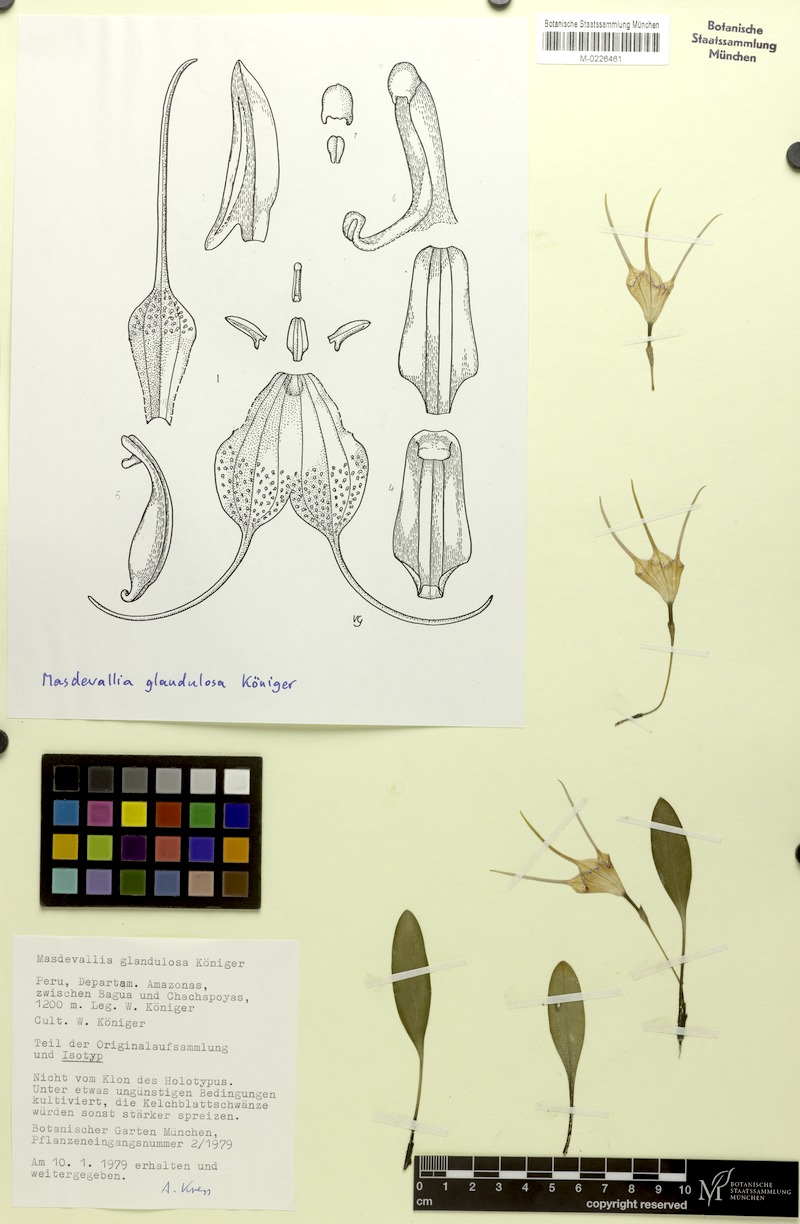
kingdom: Plantae
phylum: Tracheophyta
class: Liliopsida
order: Asparagales
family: Orchidaceae
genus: Masdevallia
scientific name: Masdevallia glandulosa
